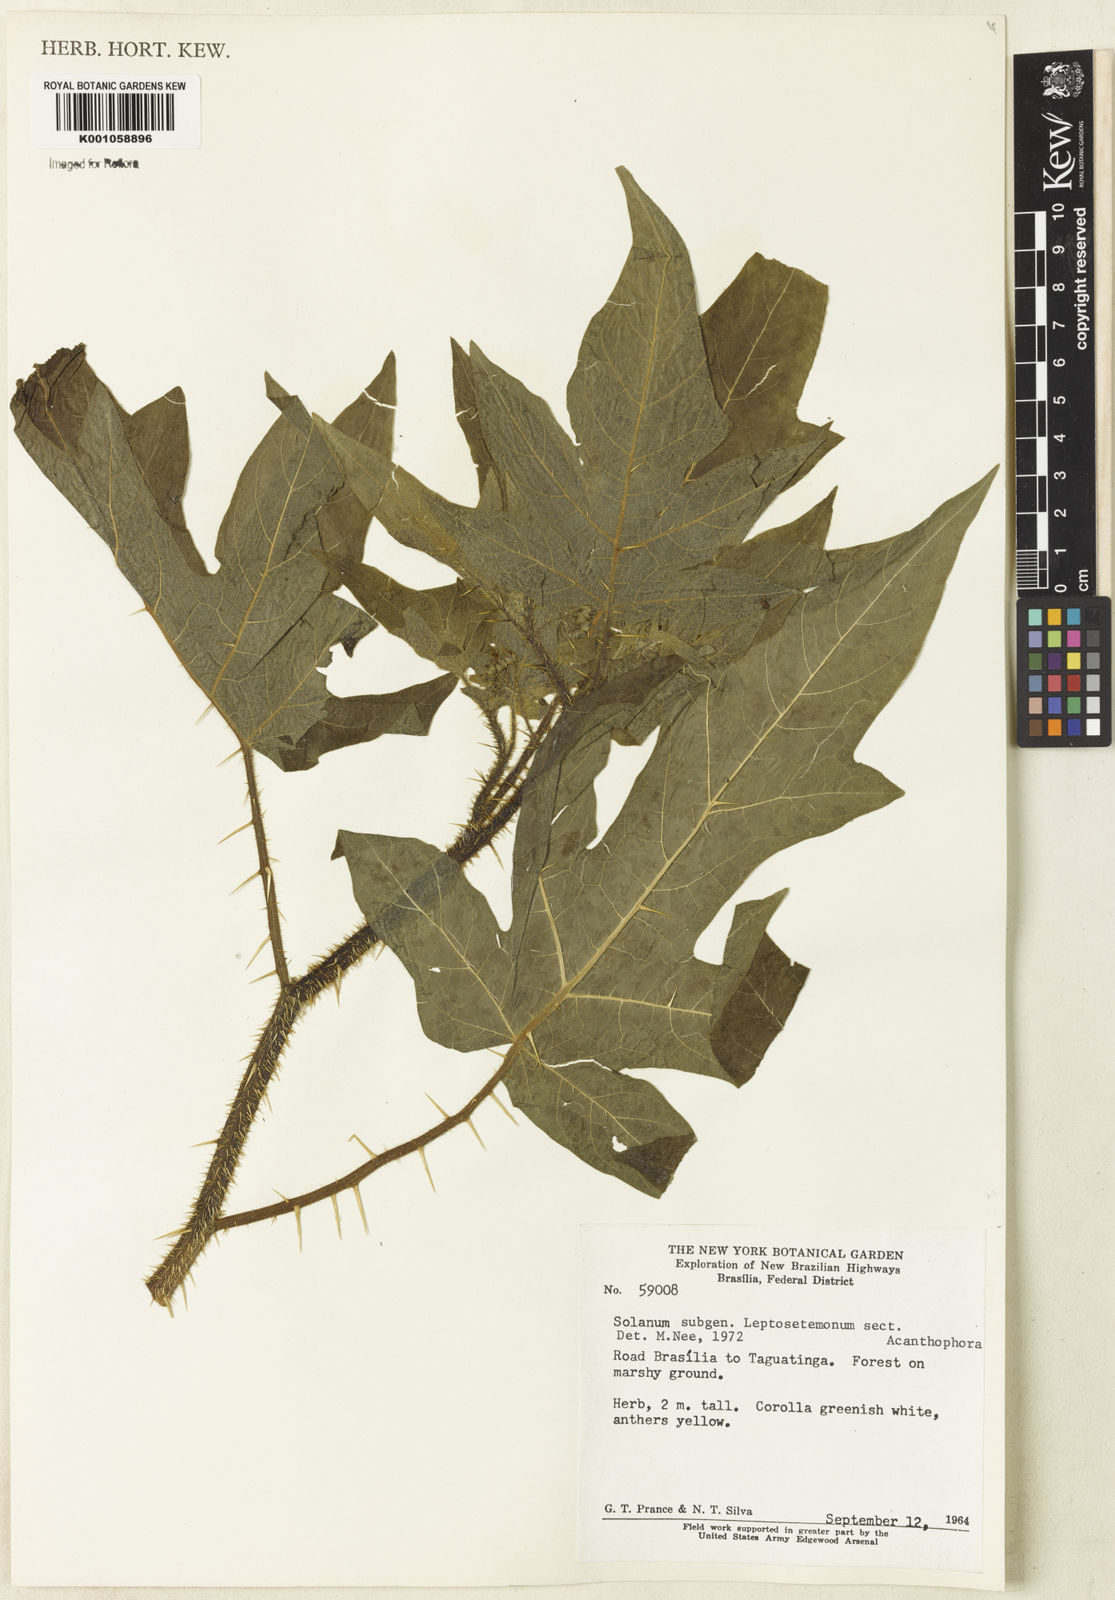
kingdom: Plantae
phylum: Tracheophyta
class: Magnoliopsida
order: Solanales
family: Solanaceae
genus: Solanum
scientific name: Solanum rufescens
